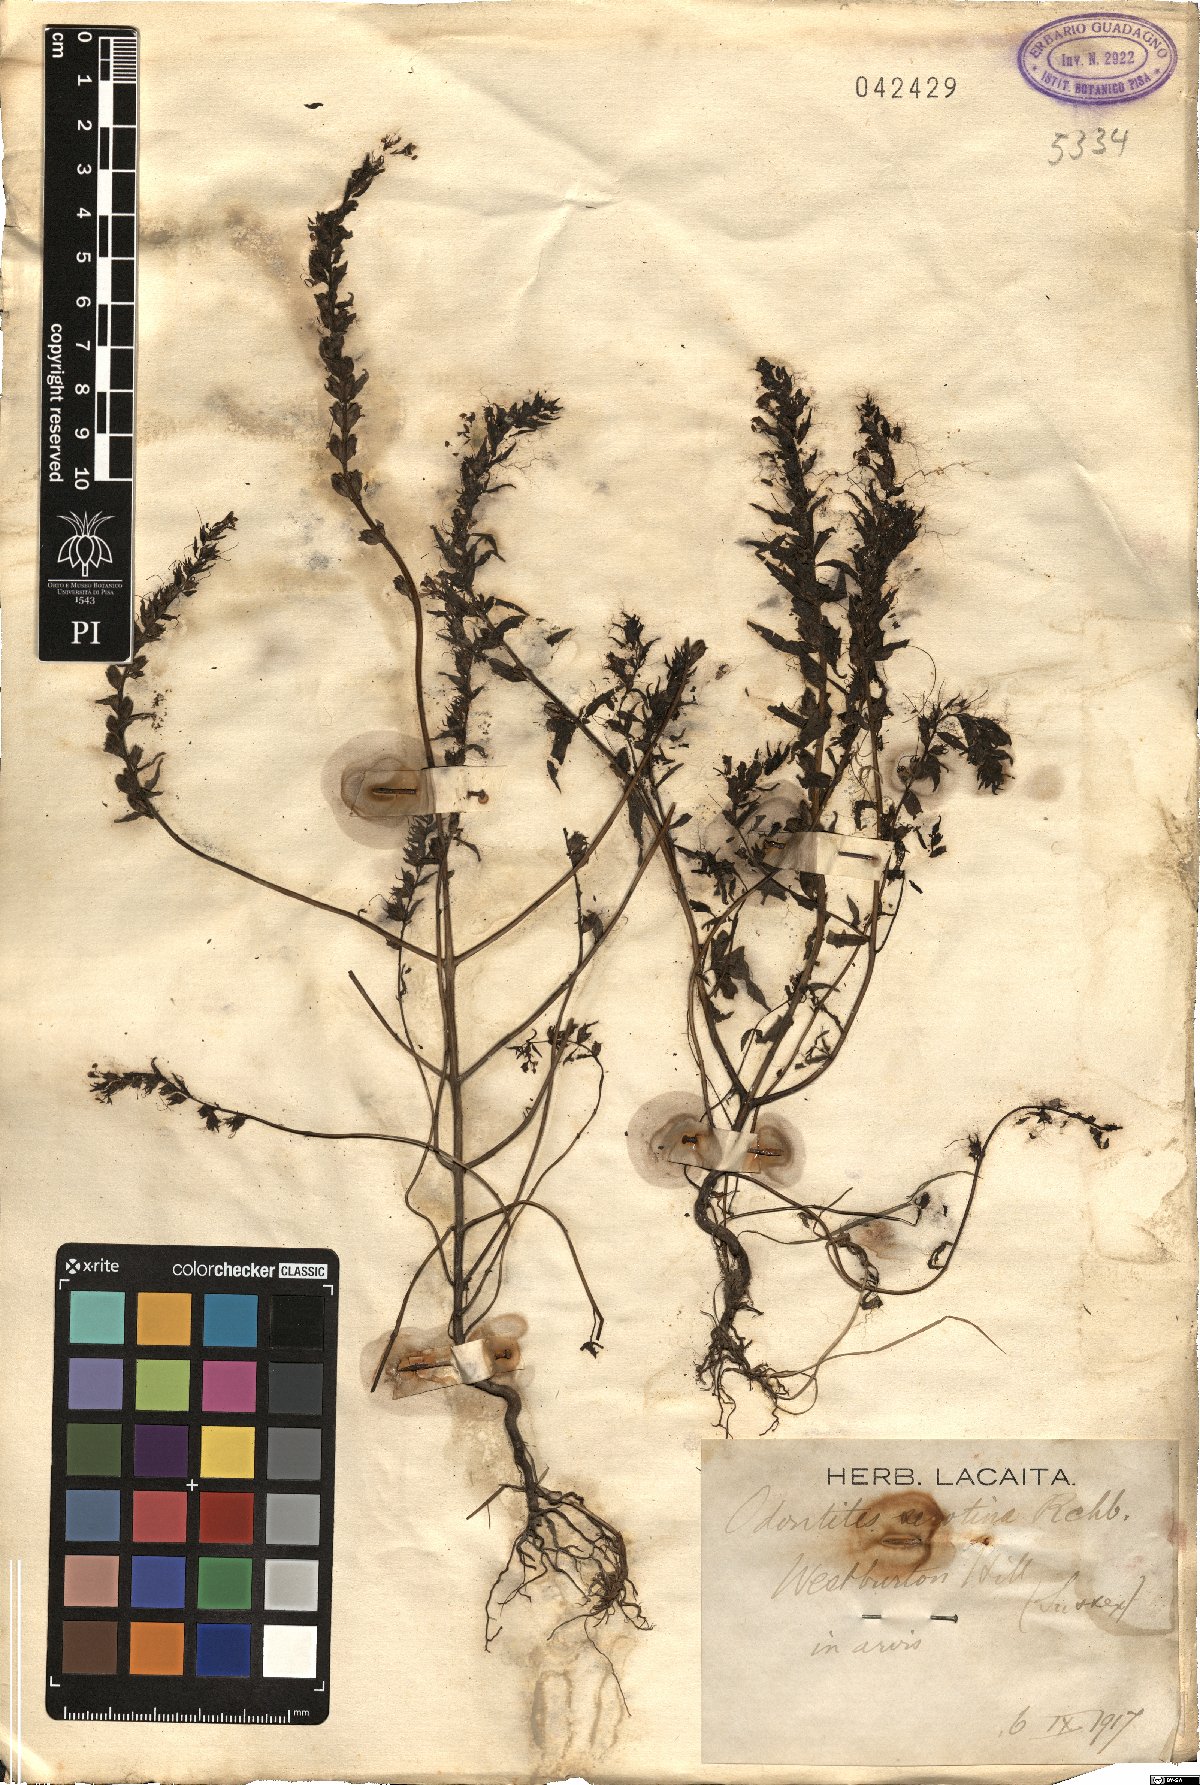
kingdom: Plantae
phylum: Tracheophyta
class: Magnoliopsida
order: Lamiales
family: Orobanchaceae
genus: Odontites
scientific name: Odontites vulgaris
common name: Broomrape
